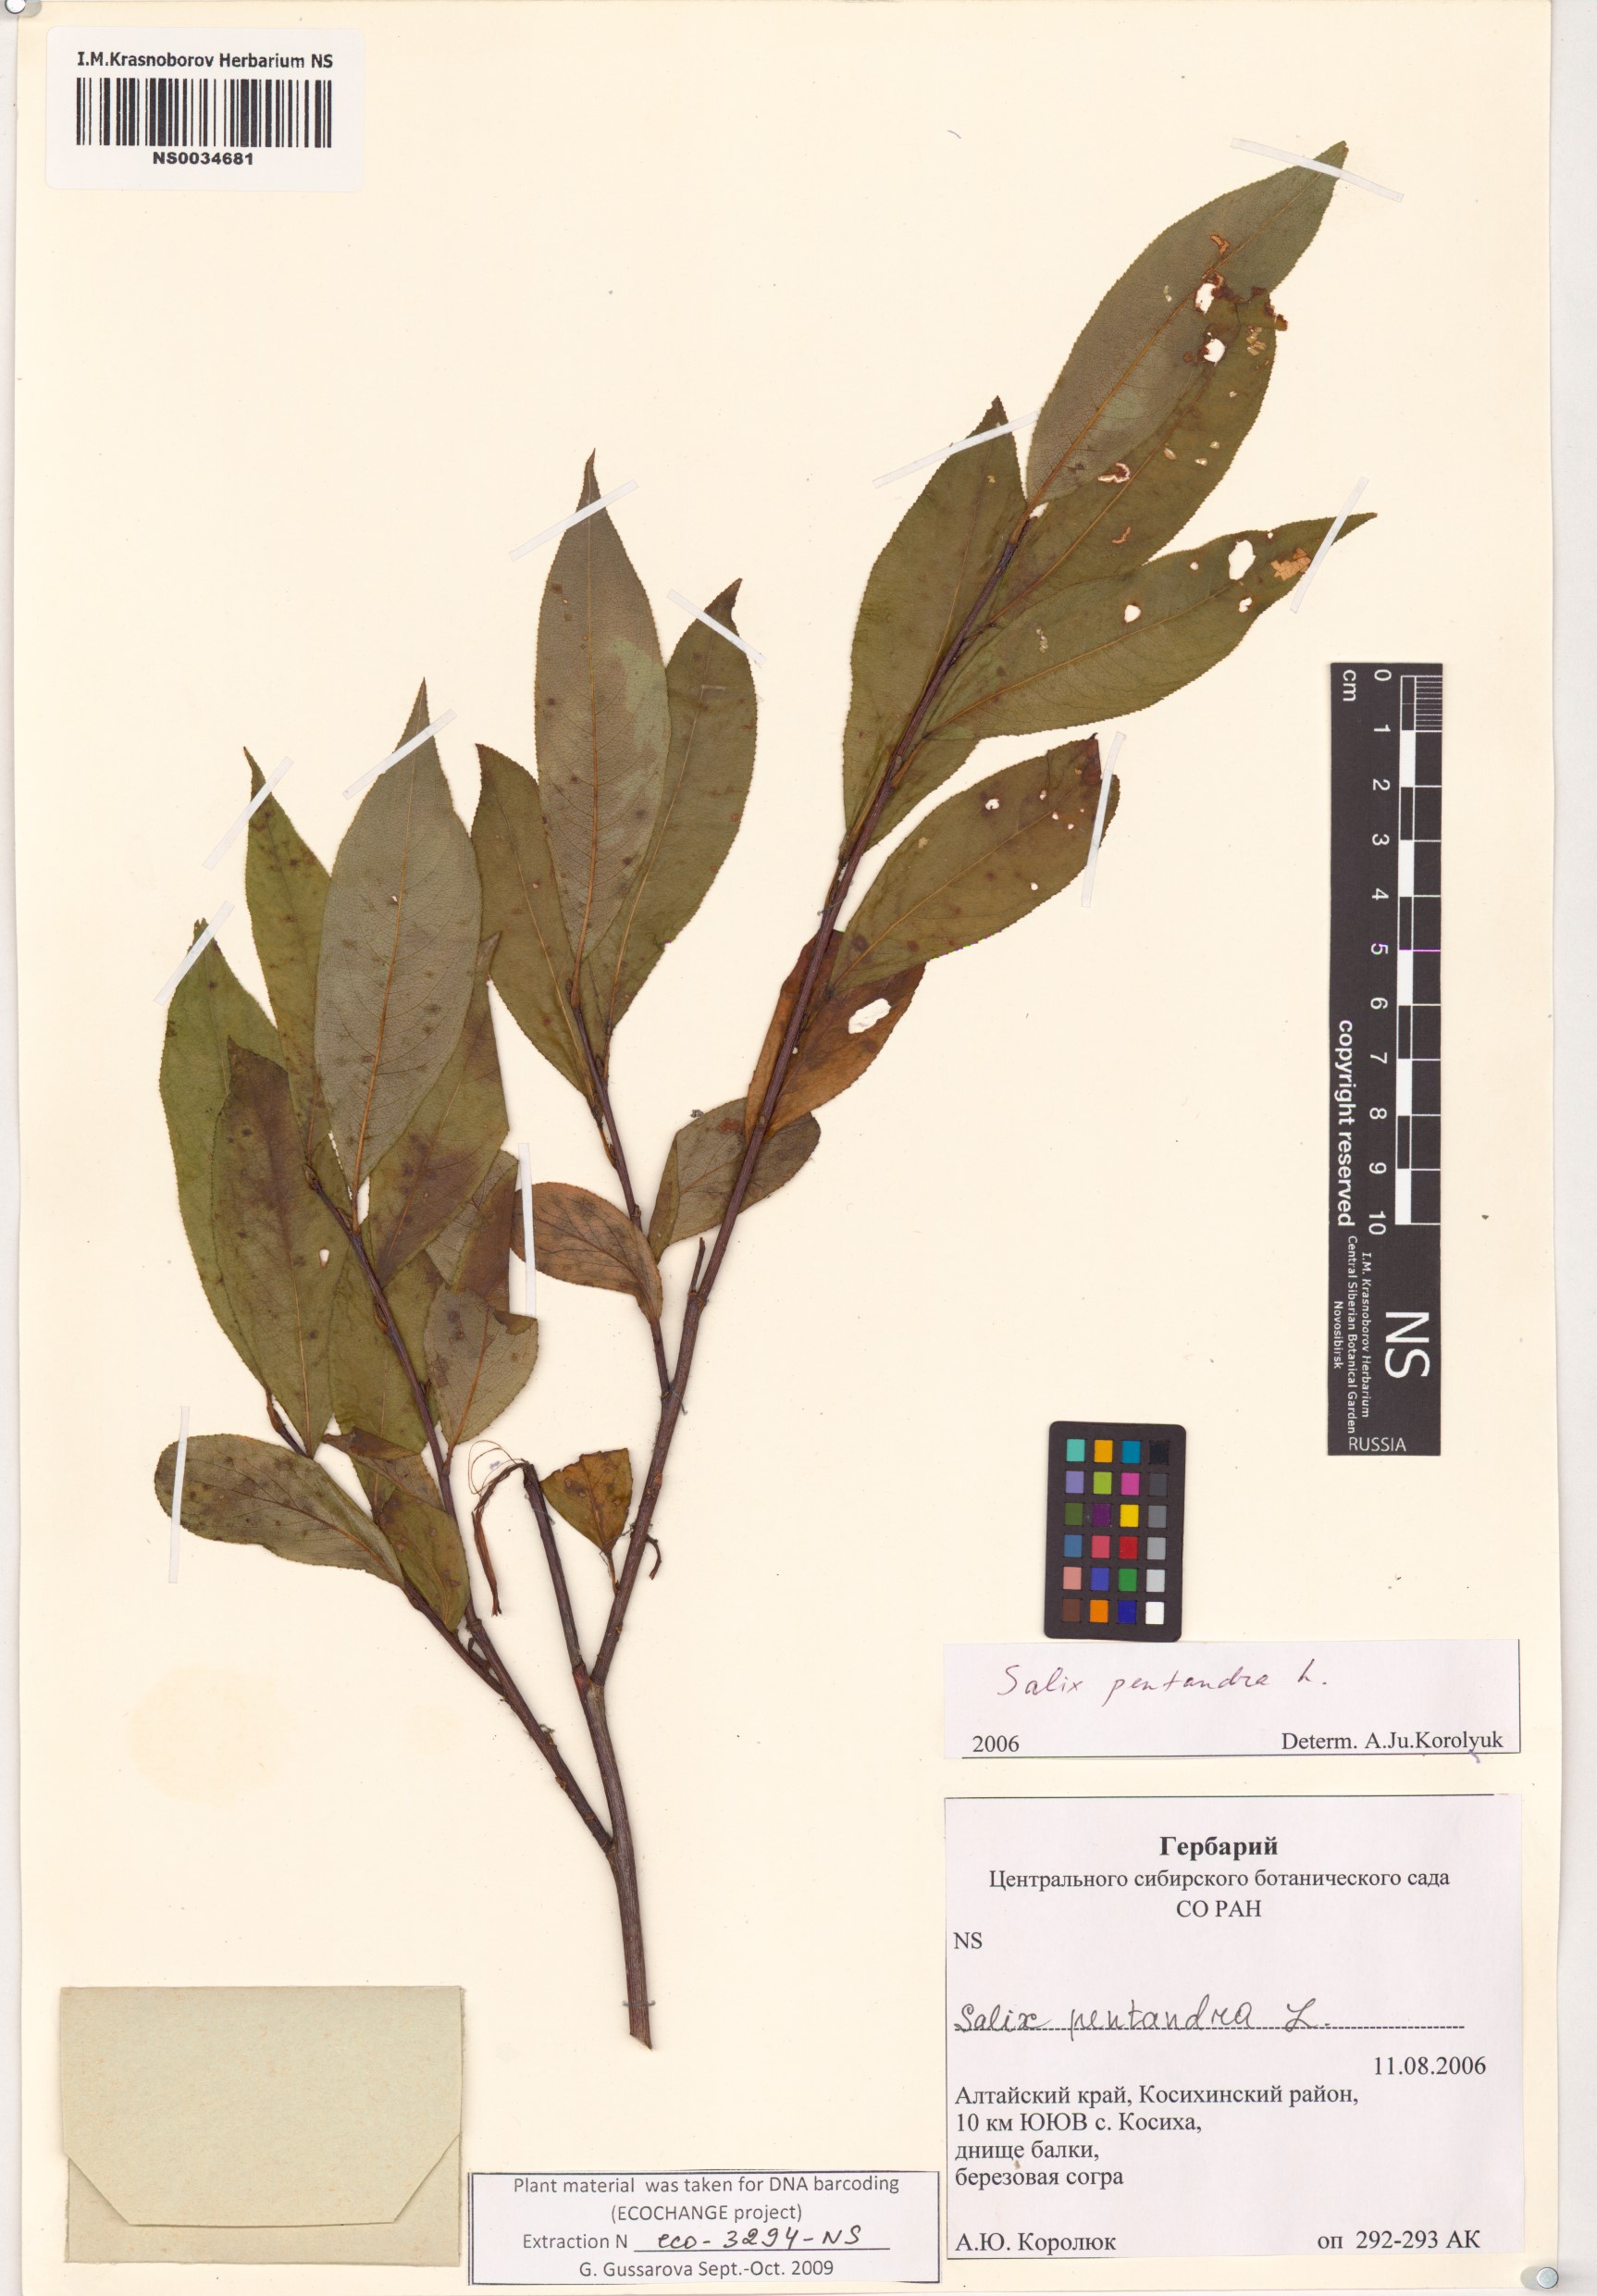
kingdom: Plantae
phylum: Tracheophyta
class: Magnoliopsida
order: Malpighiales
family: Salicaceae
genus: Salix
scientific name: Salix pentandra
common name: Bay willow
